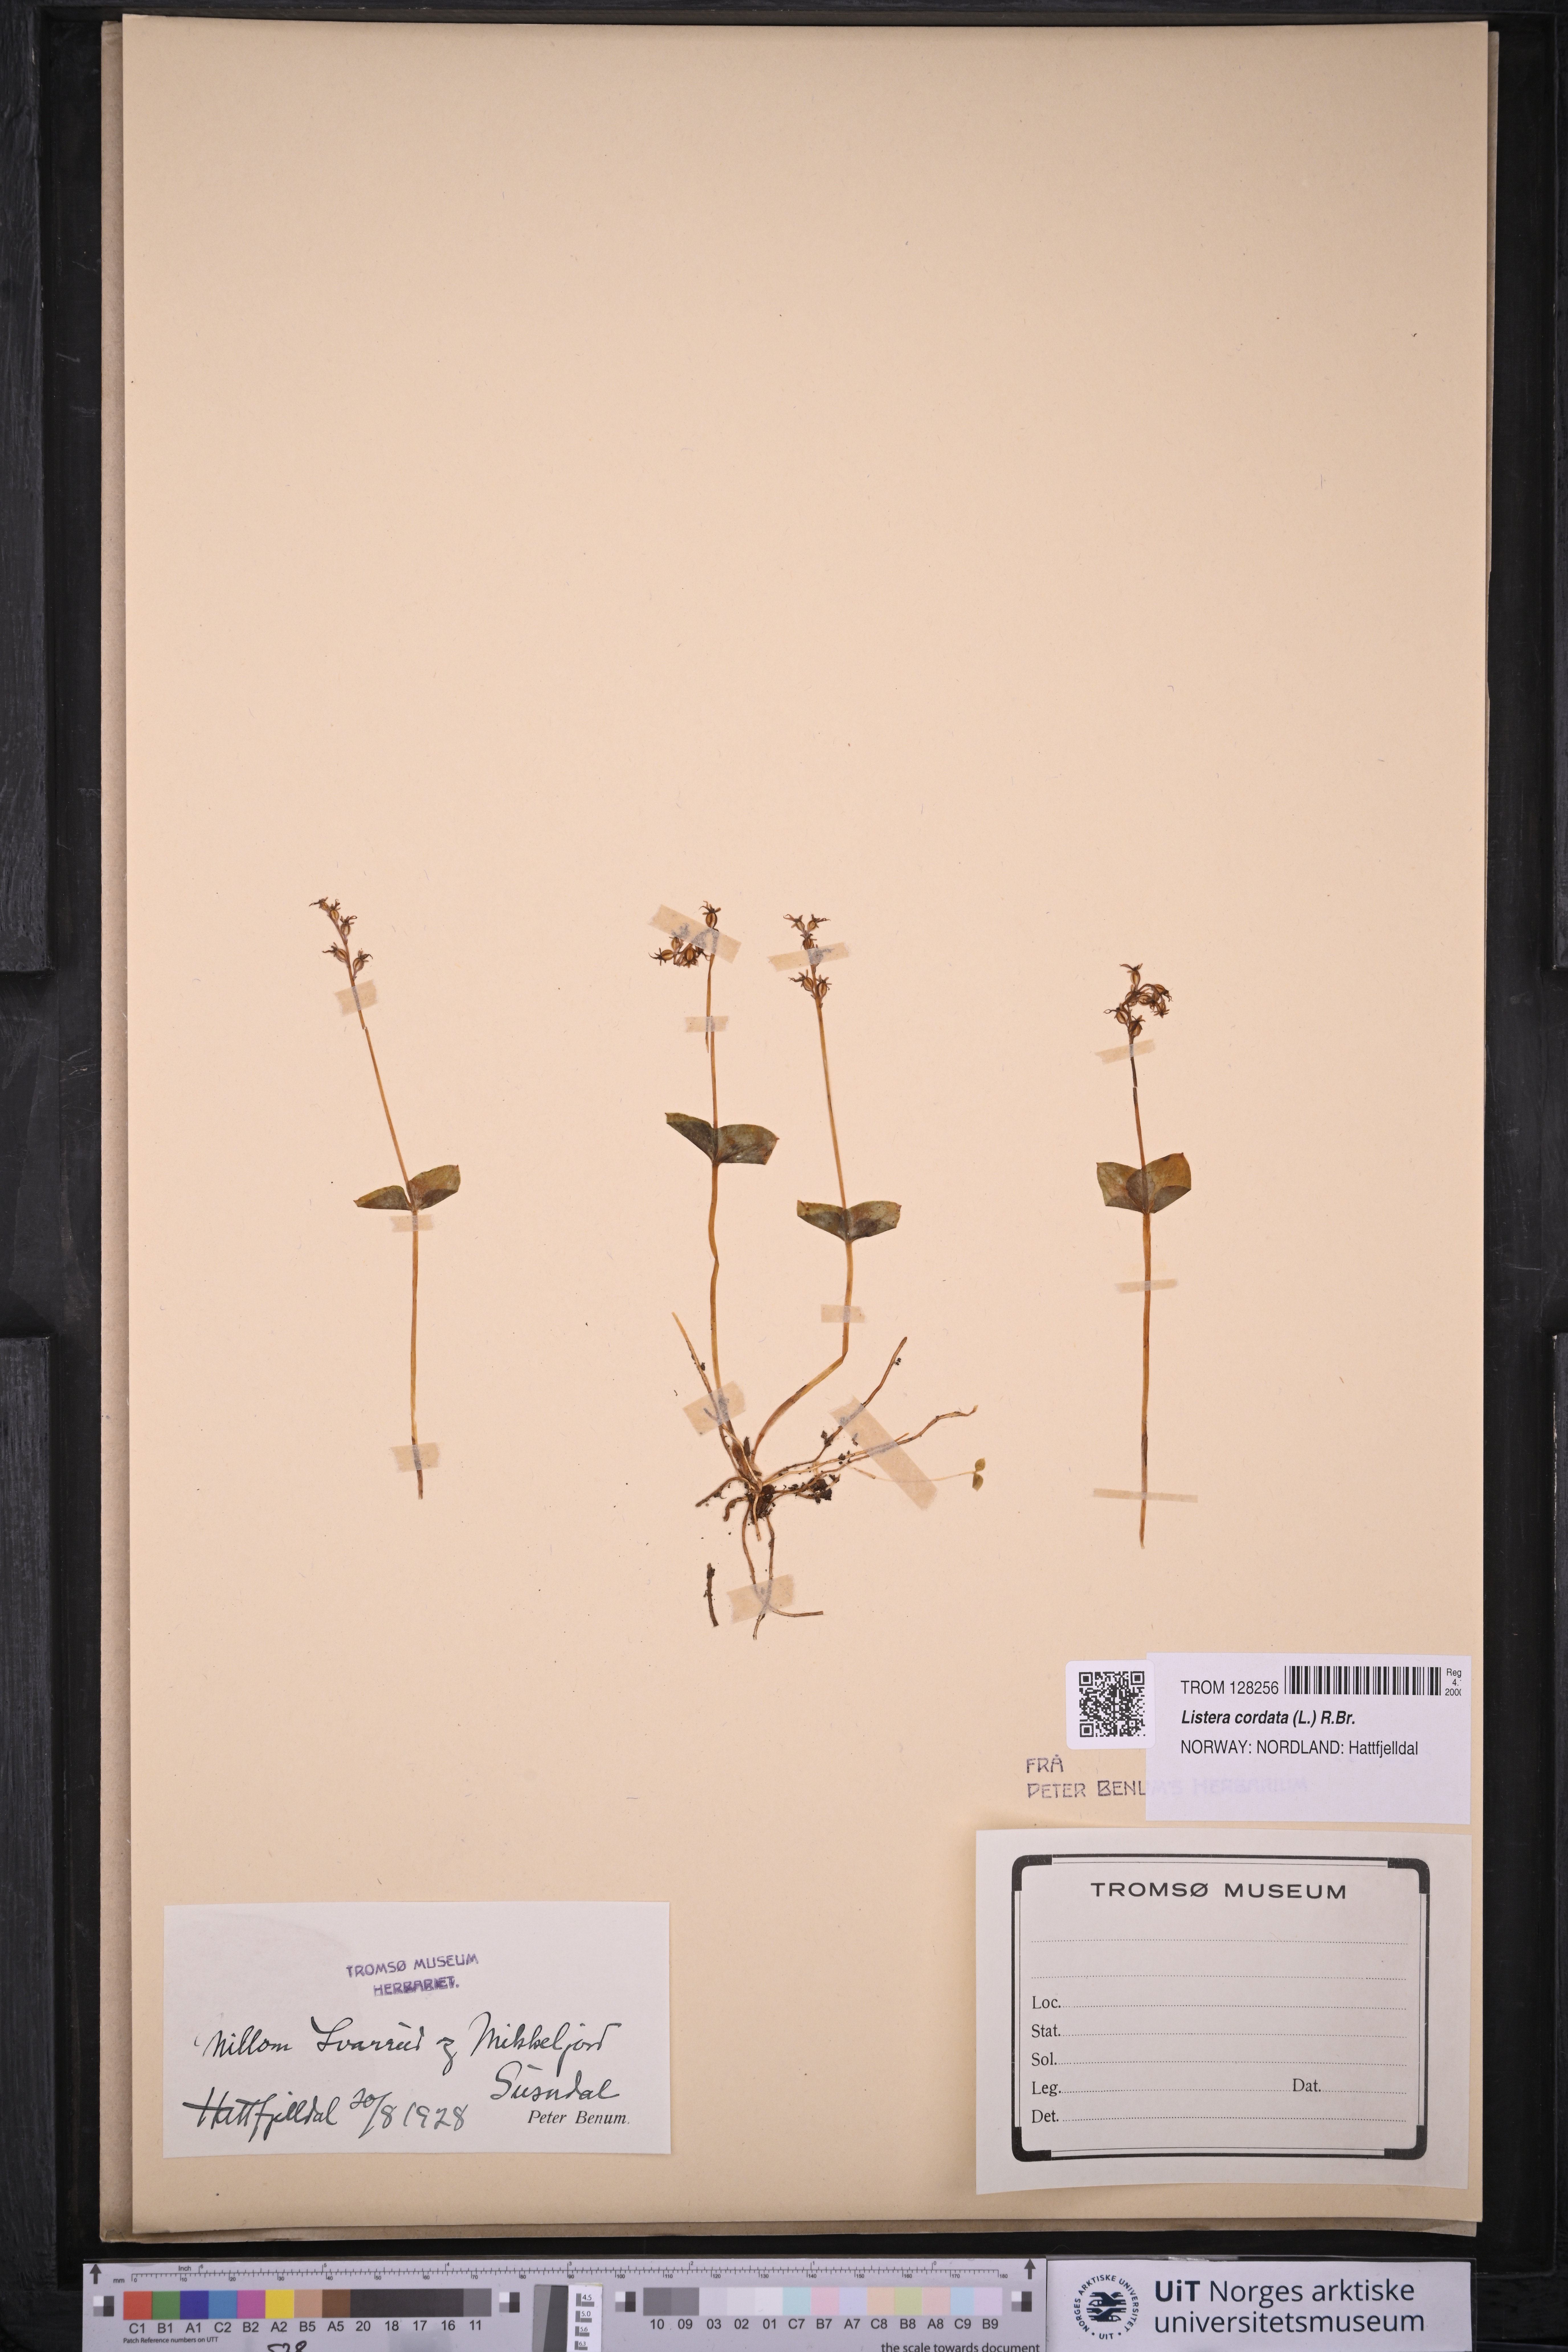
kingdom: Plantae
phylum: Tracheophyta
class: Liliopsida
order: Asparagales
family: Orchidaceae
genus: Neottia
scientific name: Neottia cordata
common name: Lesser twayblade
